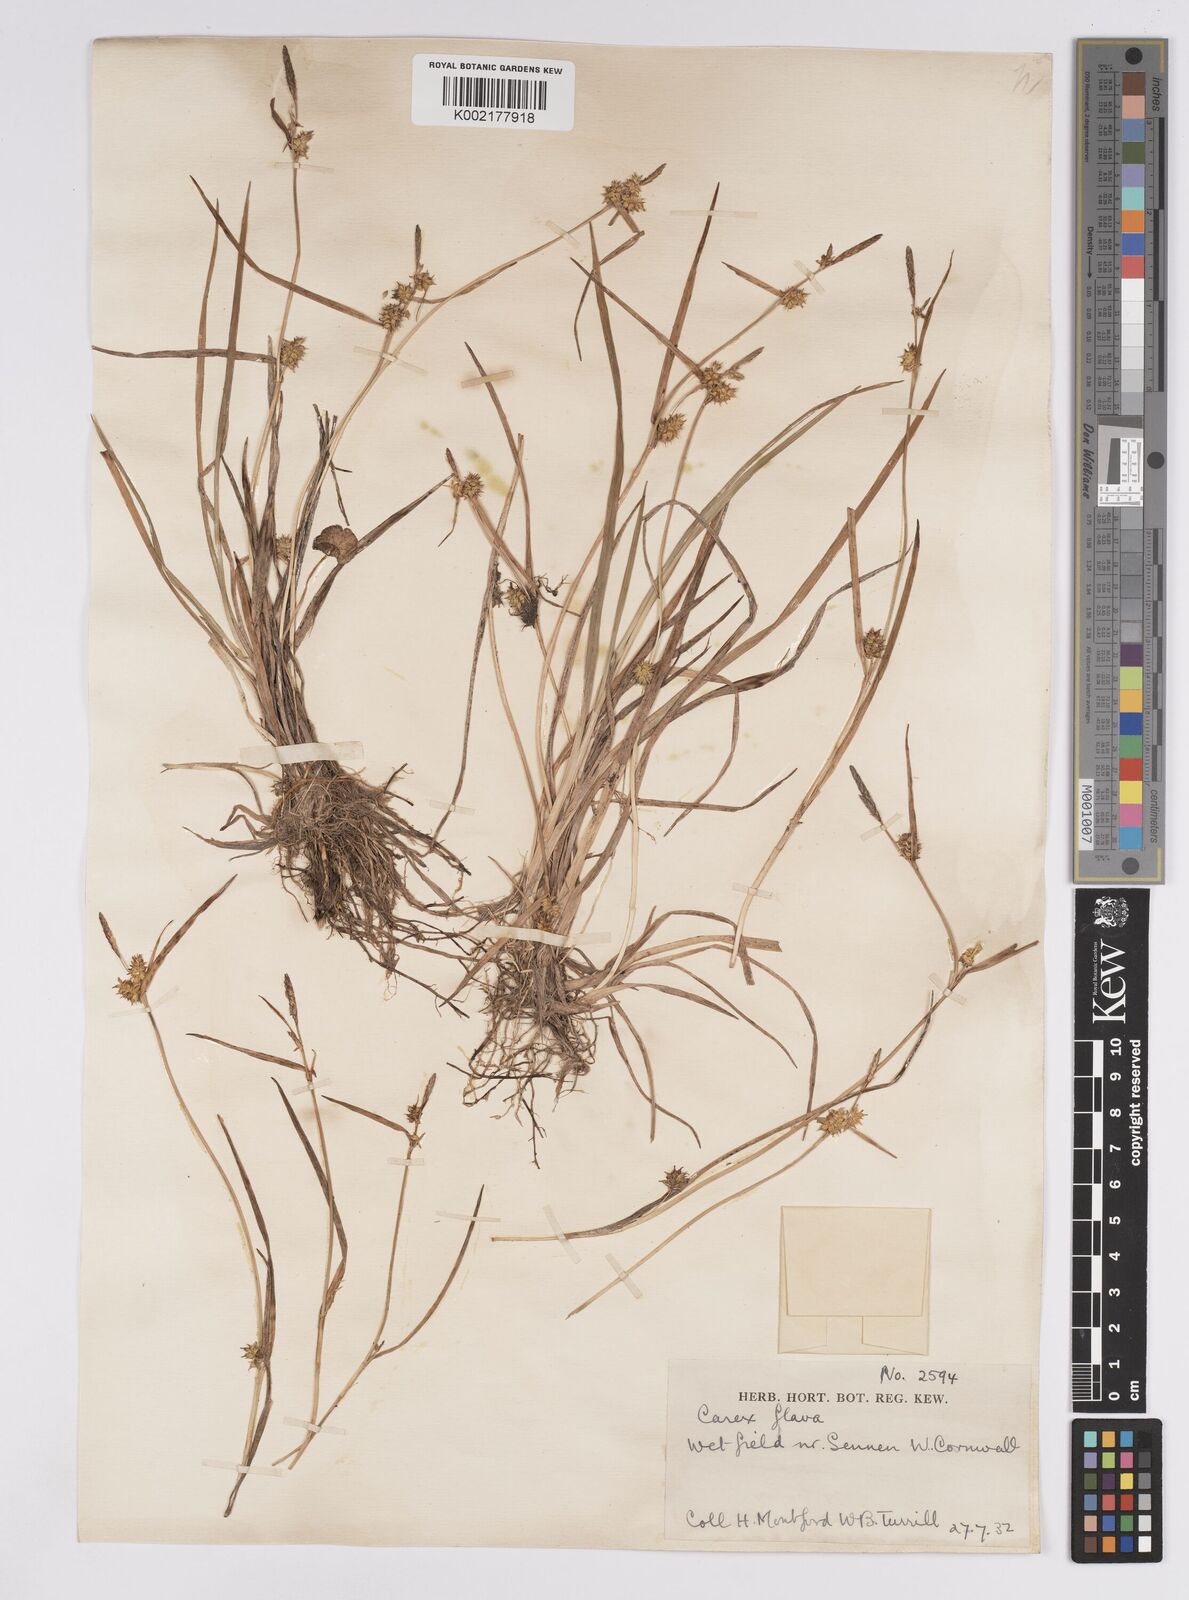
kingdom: Plantae
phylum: Tracheophyta
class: Liliopsida
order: Poales
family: Cyperaceae
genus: Carex
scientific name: Carex demissa
